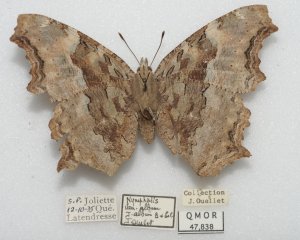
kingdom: Animalia
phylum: Arthropoda
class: Insecta
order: Lepidoptera
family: Nymphalidae
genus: Polygonia
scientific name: Polygonia vaualbum
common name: Compton Tortoiseshell
